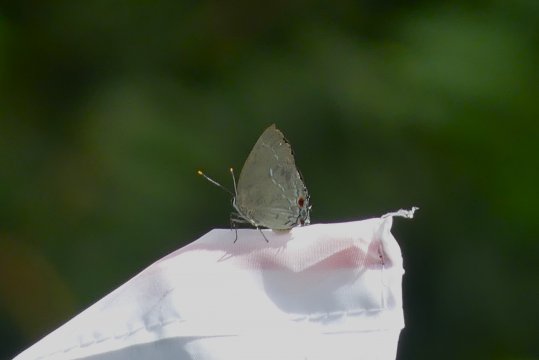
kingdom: Animalia
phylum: Arthropoda
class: Insecta
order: Lepidoptera
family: Lycaenidae
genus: Thecla
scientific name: Thecla ambrax
